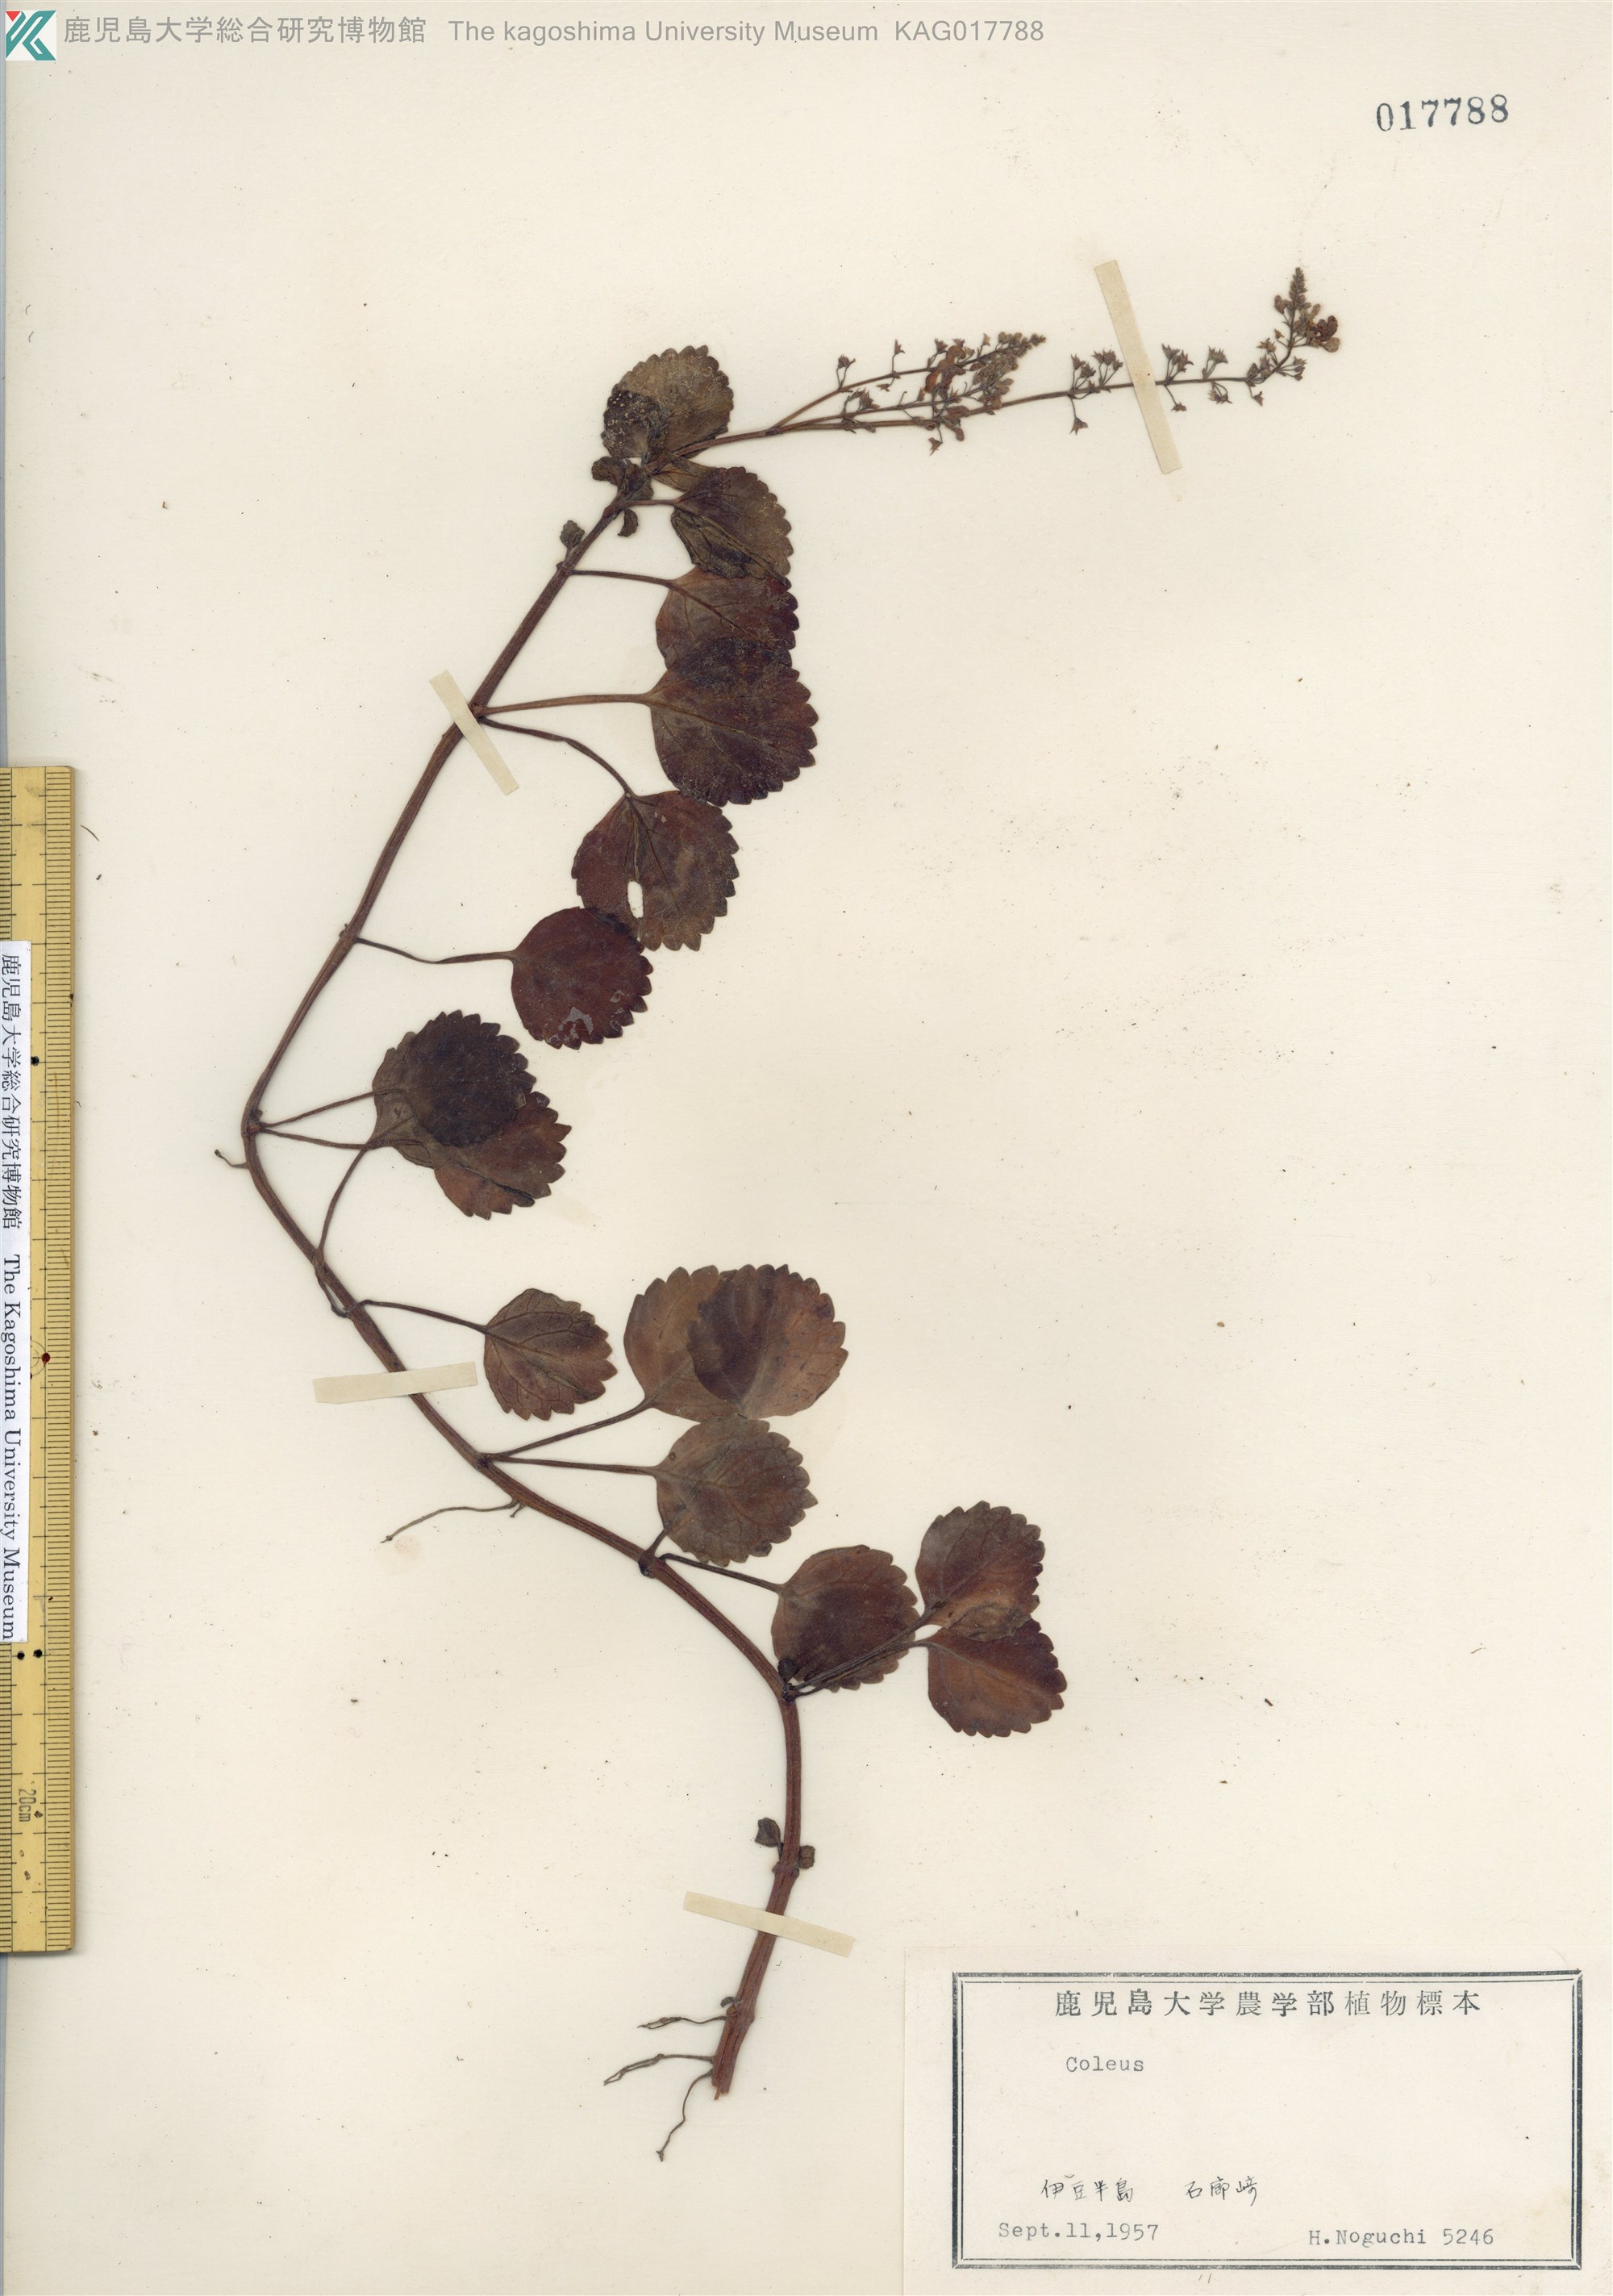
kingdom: Plantae
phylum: Tracheophyta
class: Magnoliopsida
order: Lamiales
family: Lamiaceae
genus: Coleus
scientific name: Coleus parishii
